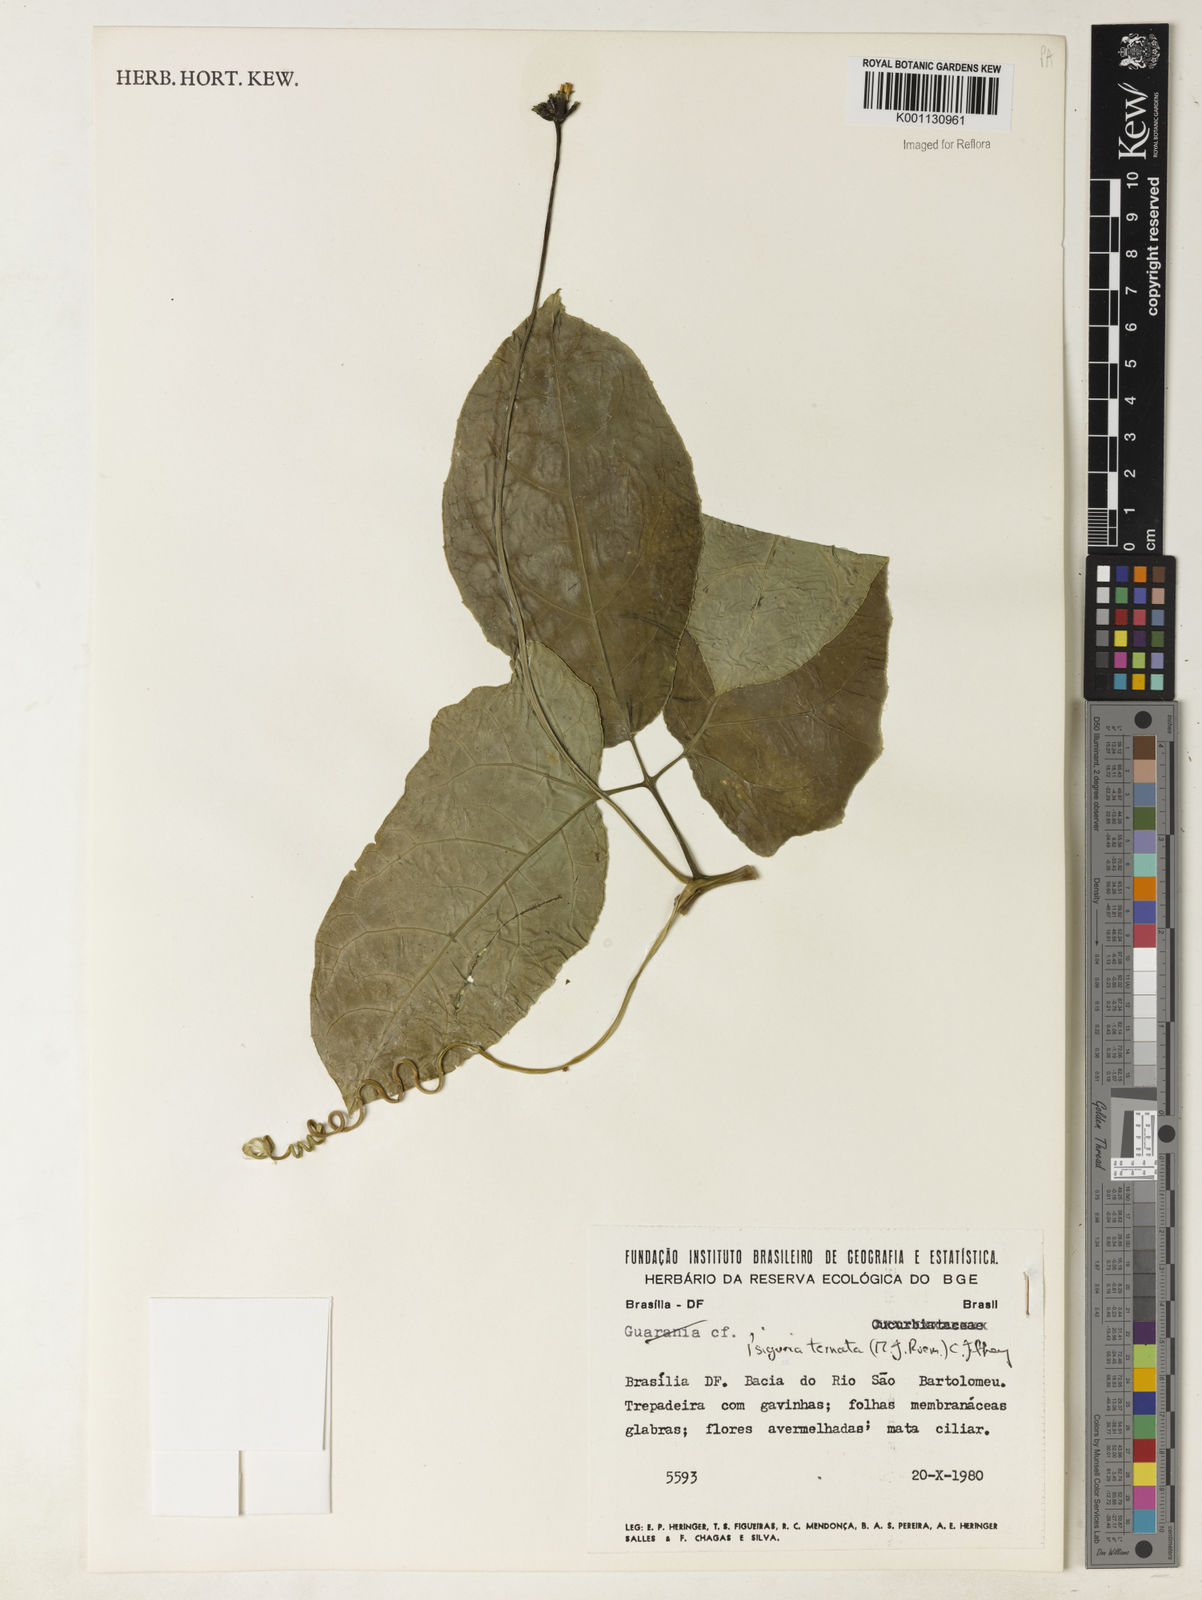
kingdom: Plantae
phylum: Tracheophyta
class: Magnoliopsida
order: Cucurbitales
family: Cucurbitaceae
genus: Psiguria
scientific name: Psiguria ternata
